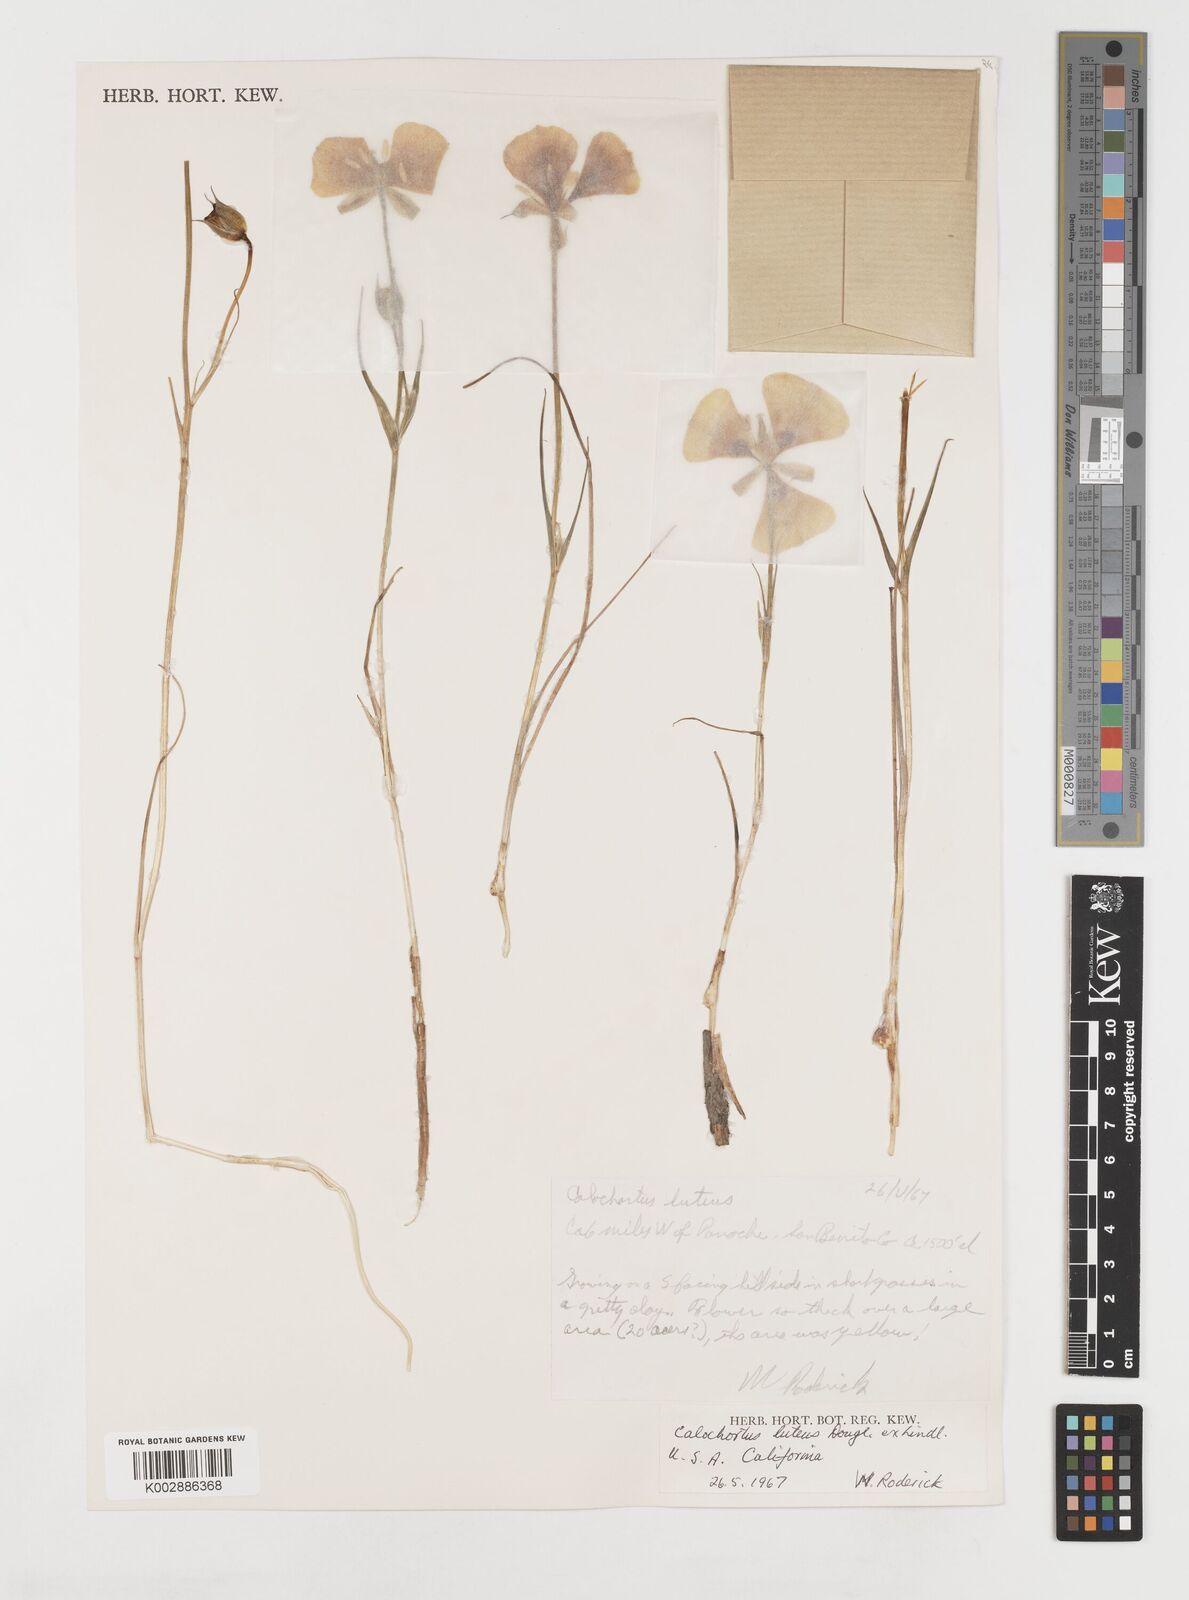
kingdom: Plantae
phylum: Tracheophyta
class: Liliopsida
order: Liliales
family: Liliaceae
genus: Calochortus
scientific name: Calochortus nuttallii
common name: Sego-lily
